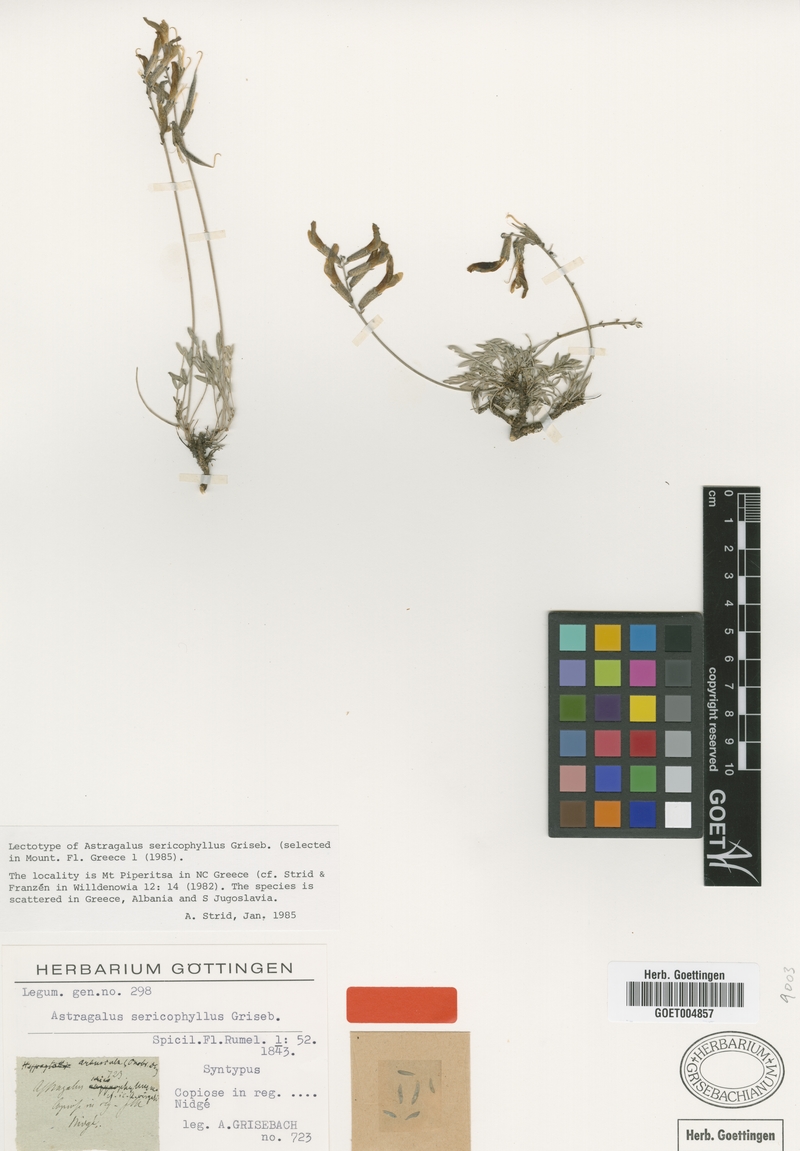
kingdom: Plantae
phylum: Tracheophyta
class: Magnoliopsida
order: Fabales
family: Fabaceae
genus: Astragalus
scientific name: Astragalus sericophyllus
